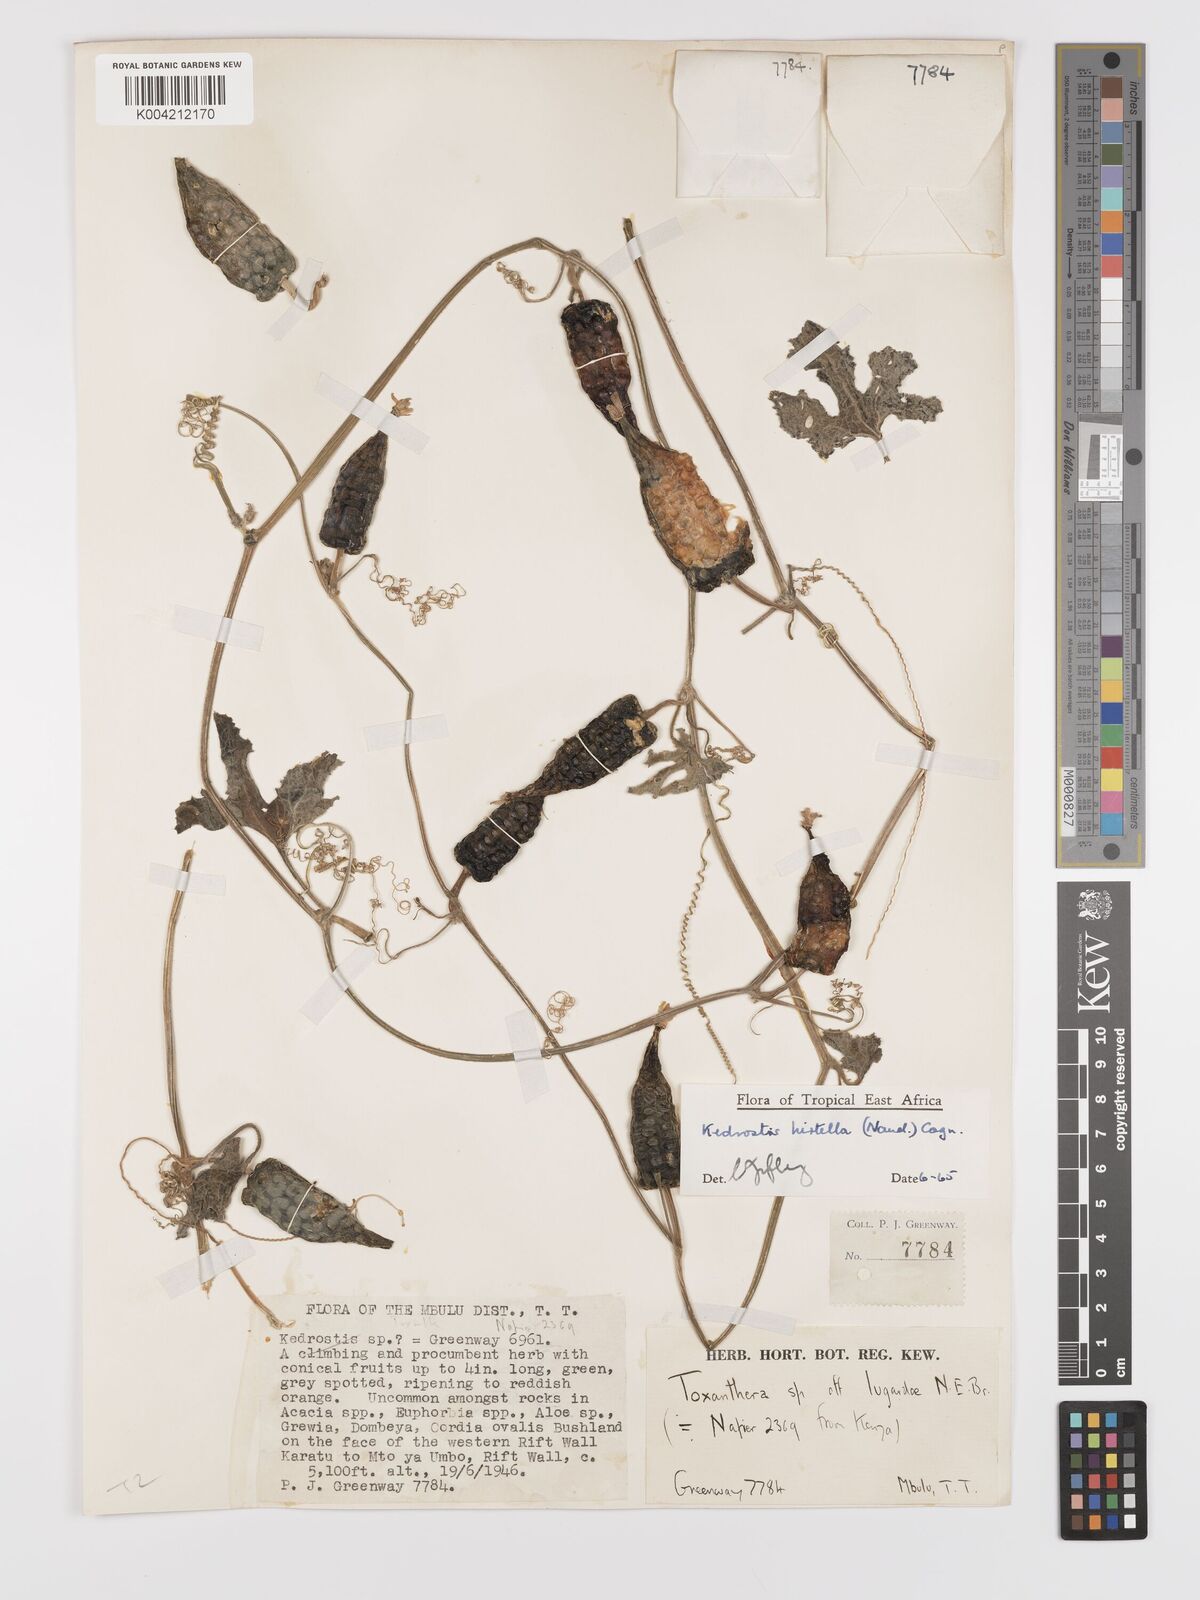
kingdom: Plantae
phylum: Tracheophyta
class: Magnoliopsida
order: Cucurbitales
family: Cucurbitaceae
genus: Kedrostis
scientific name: Kedrostis leloja
